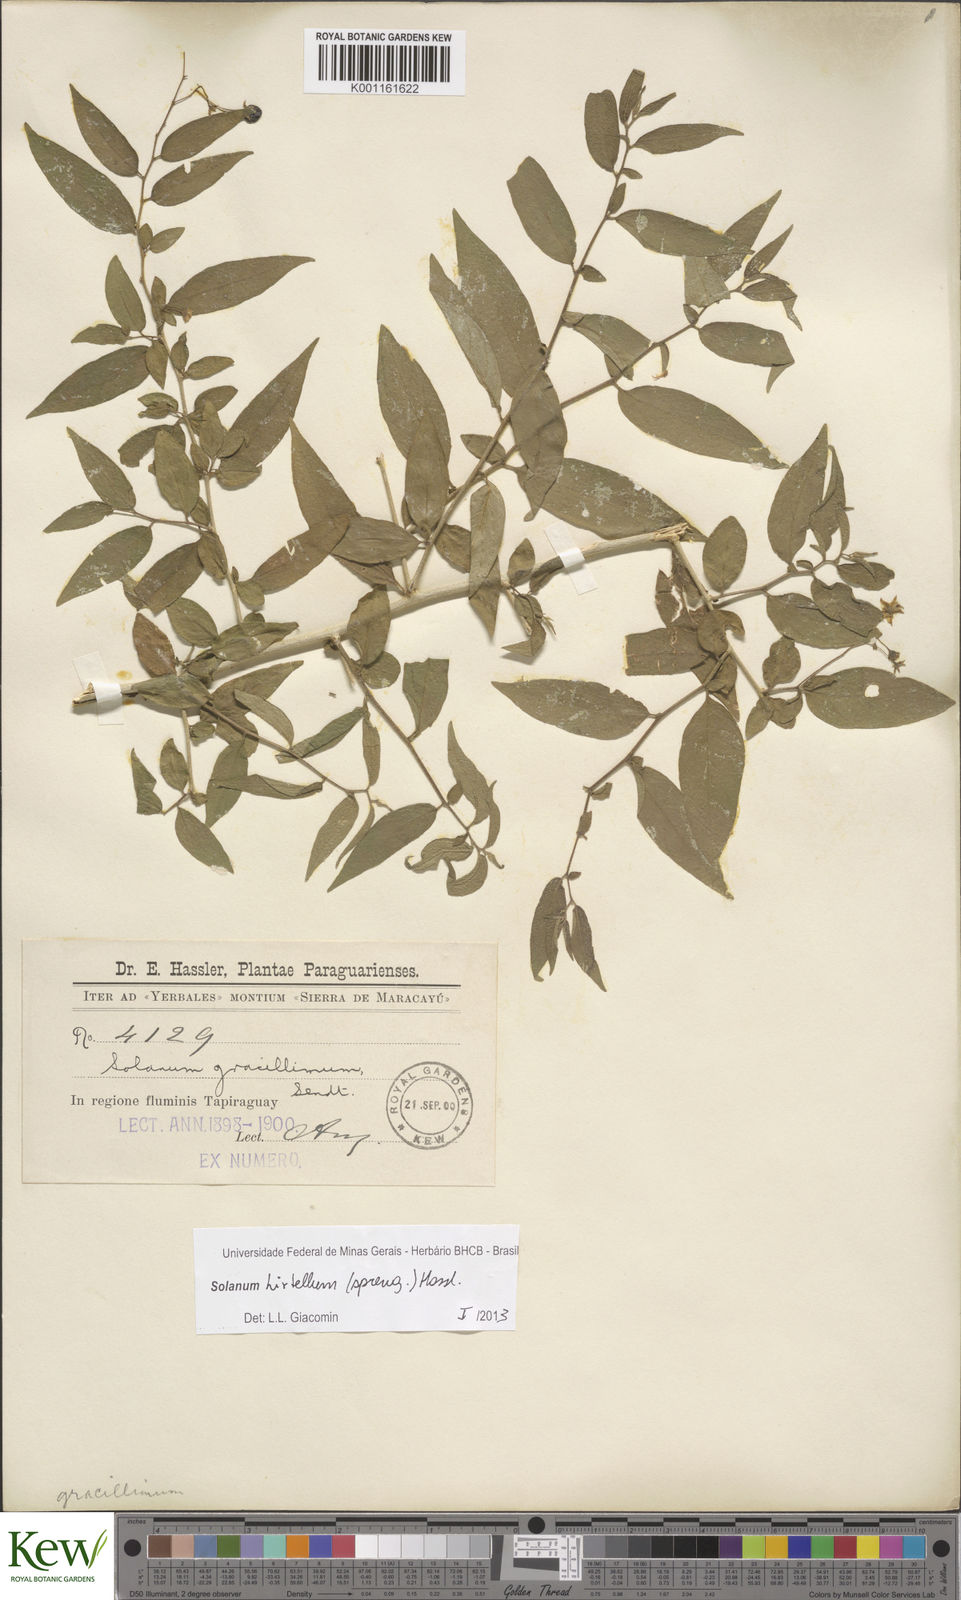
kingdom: Plantae
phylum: Tracheophyta
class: Magnoliopsida
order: Solanales
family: Solanaceae
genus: Solanum
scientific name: Solanum hirtellum
